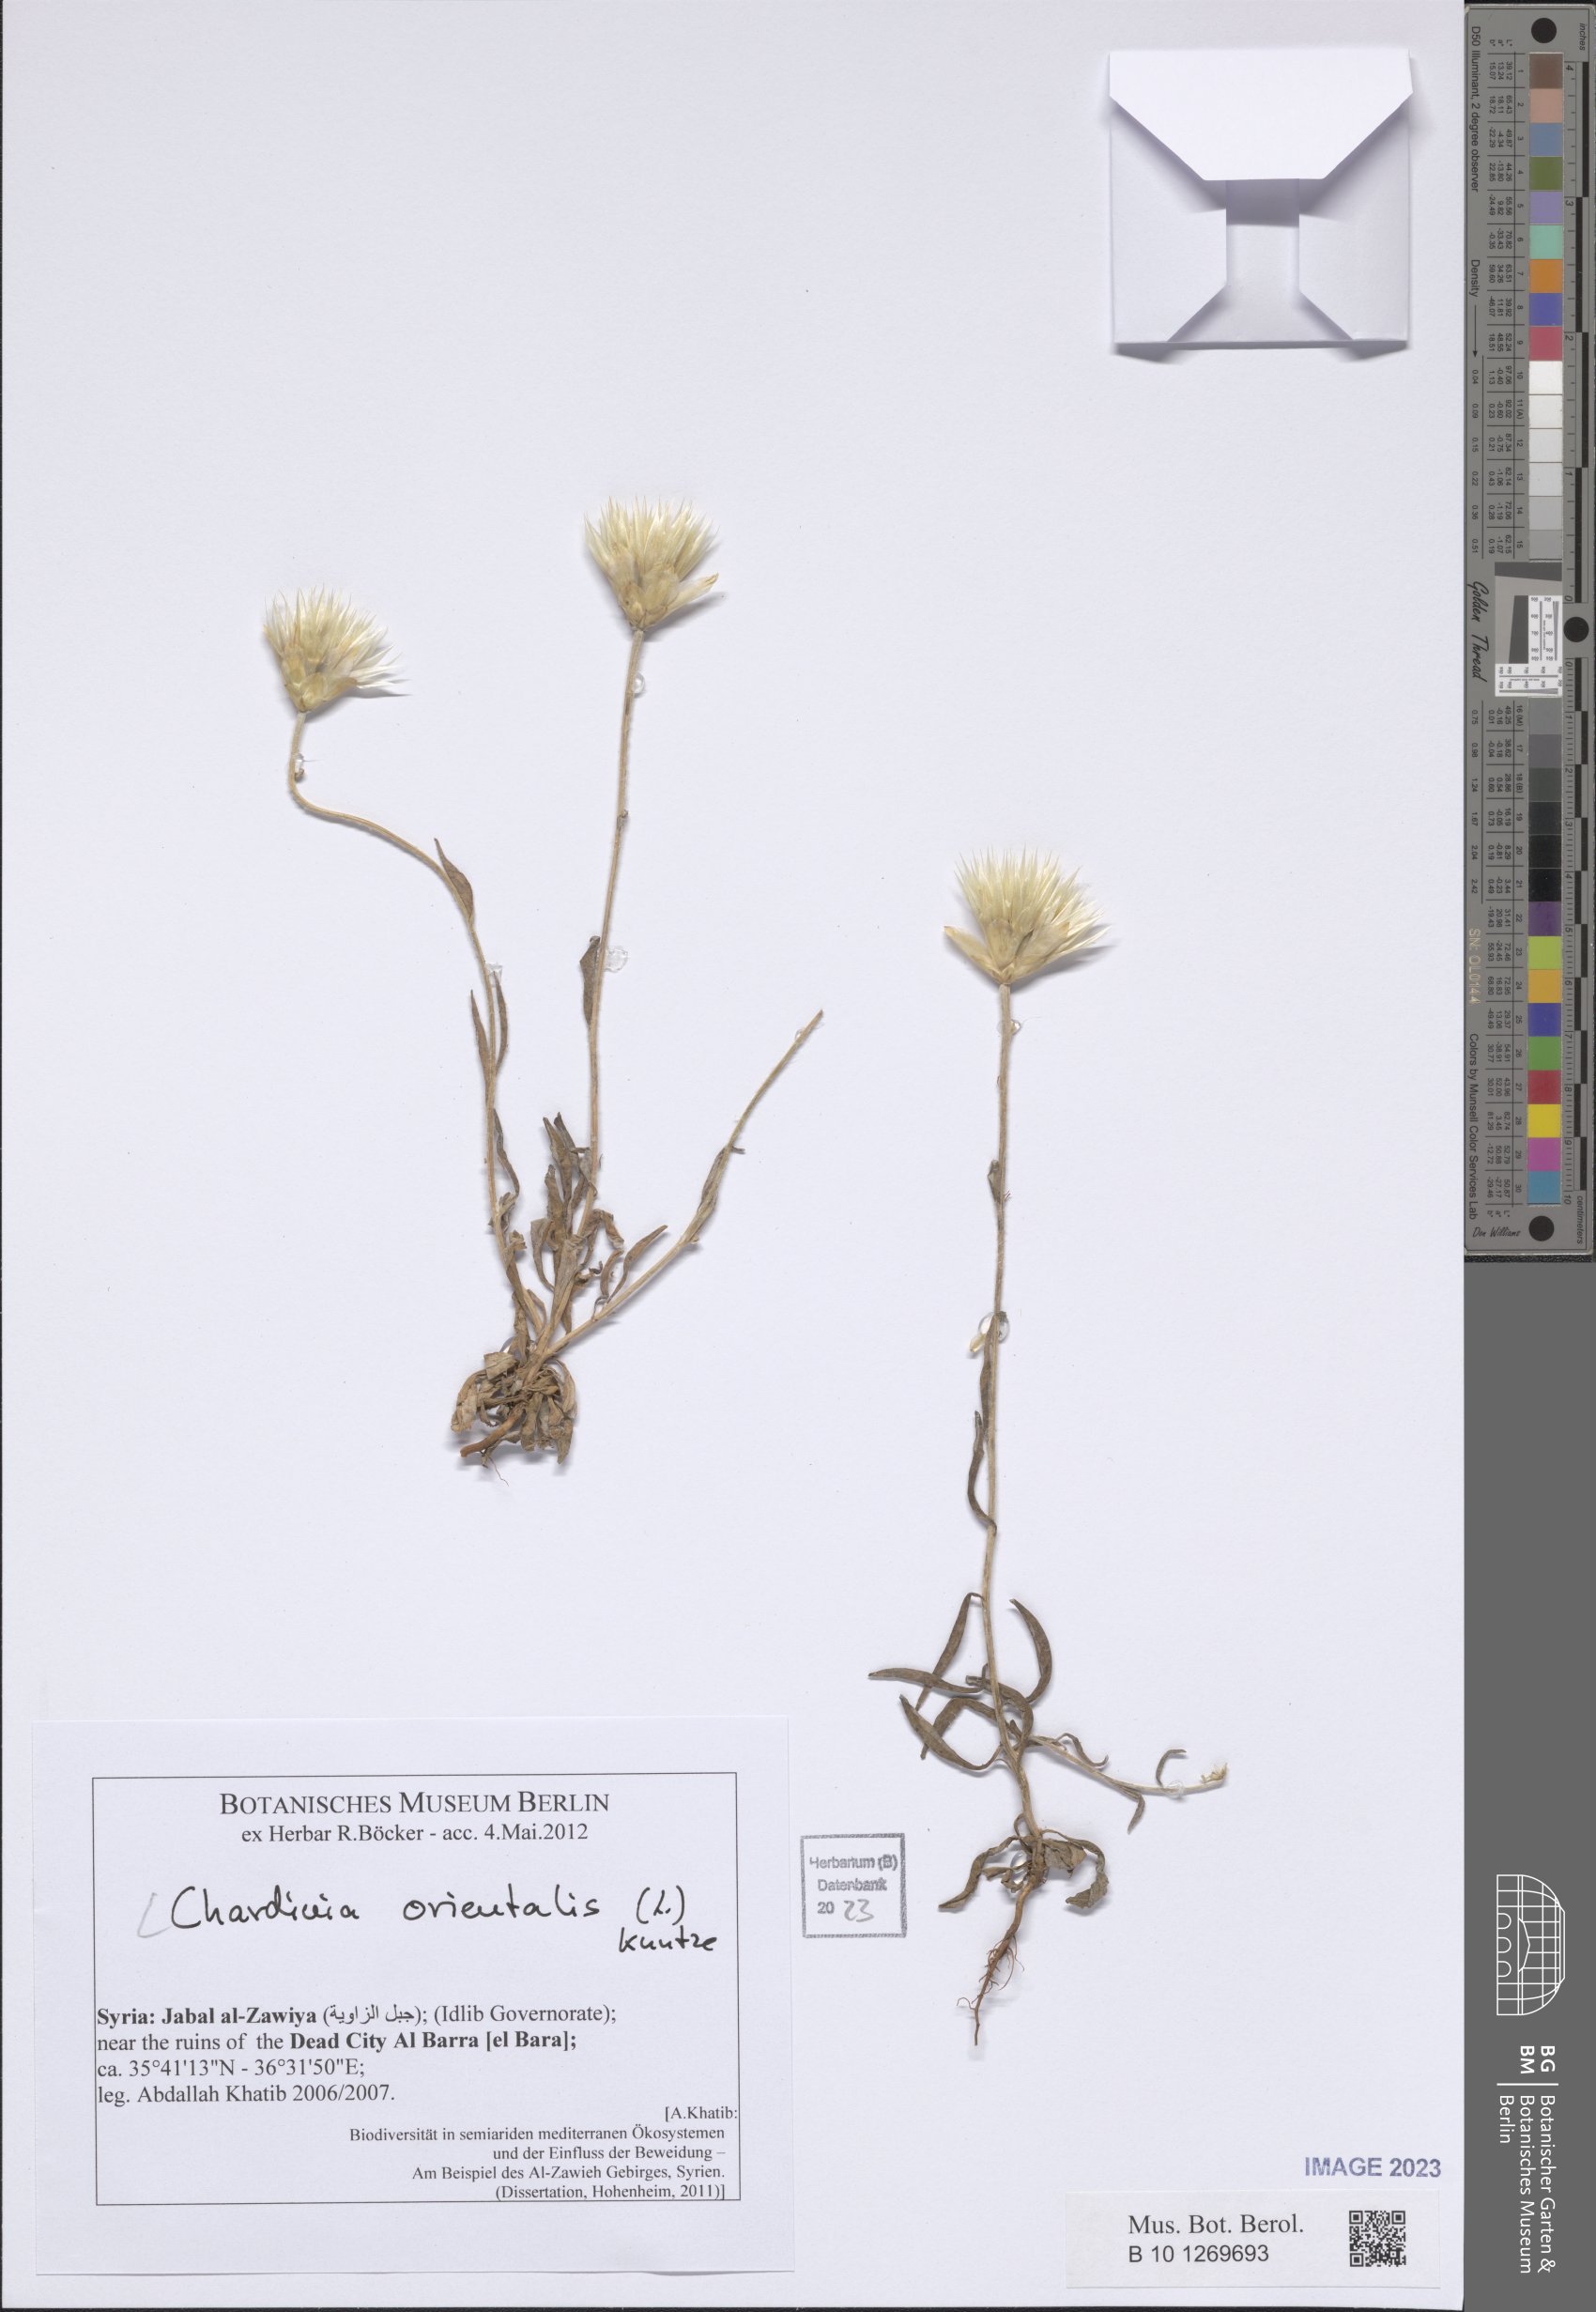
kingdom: Plantae
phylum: Tracheophyta
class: Magnoliopsida
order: Asterales
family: Asteraceae
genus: Chardinia
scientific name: Chardinia orientalis
